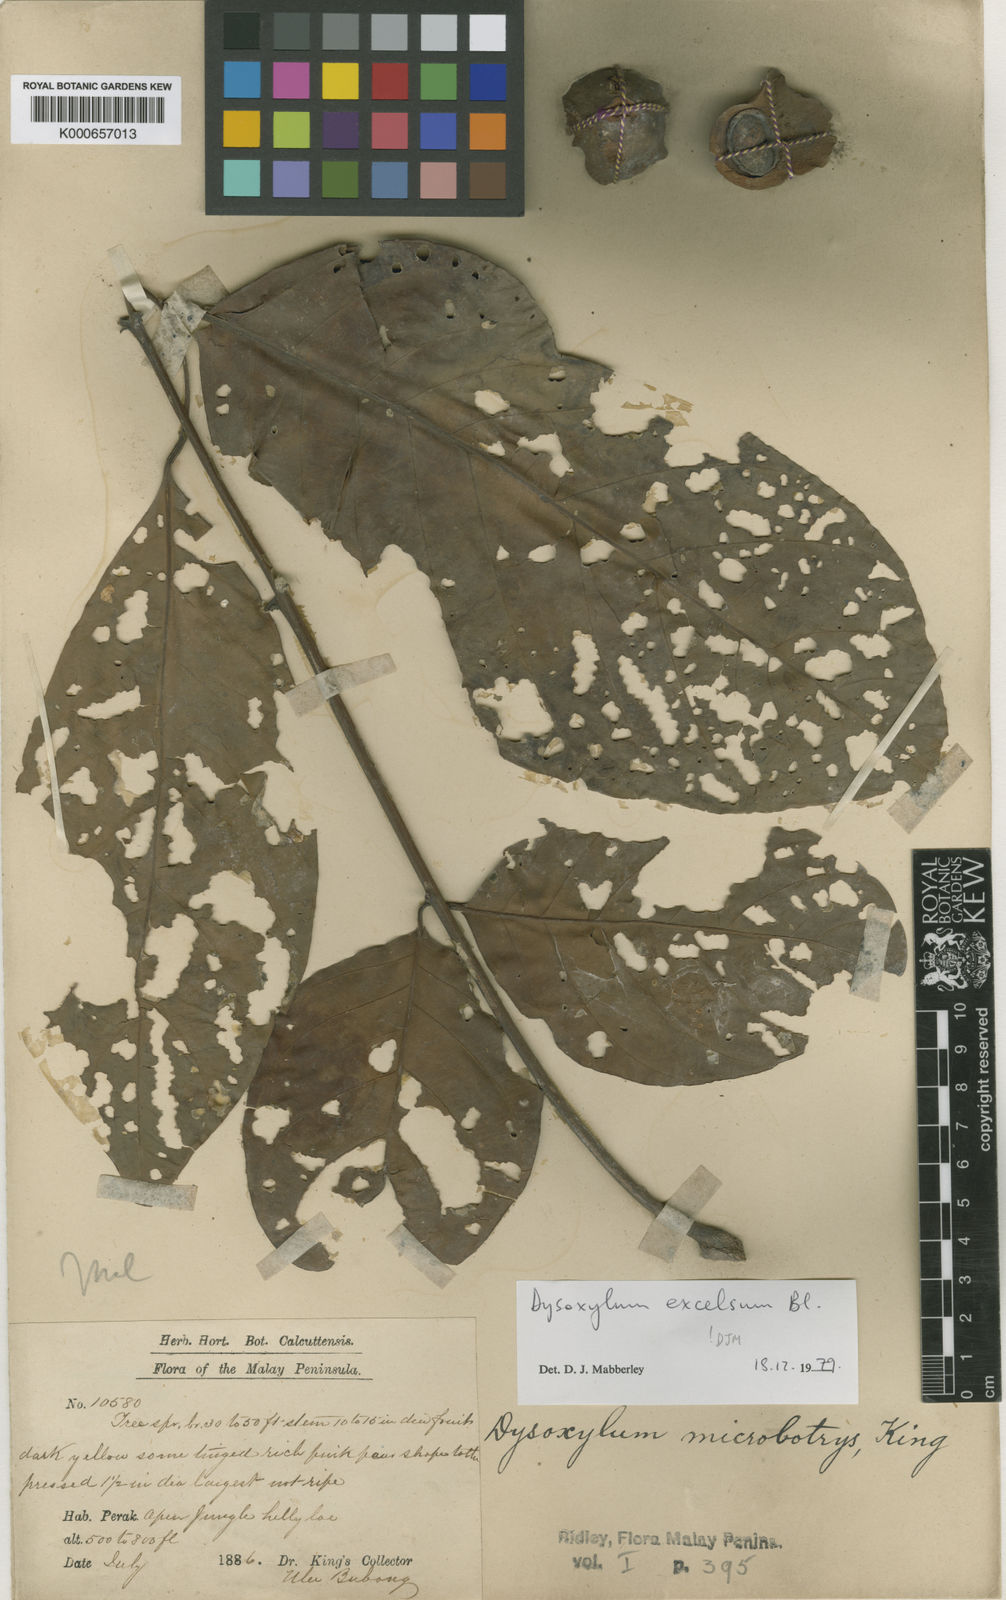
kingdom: Plantae
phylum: Tracheophyta
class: Magnoliopsida
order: Sapindales
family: Meliaceae
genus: Dysoxylum
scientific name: Dysoxylum excelsum
